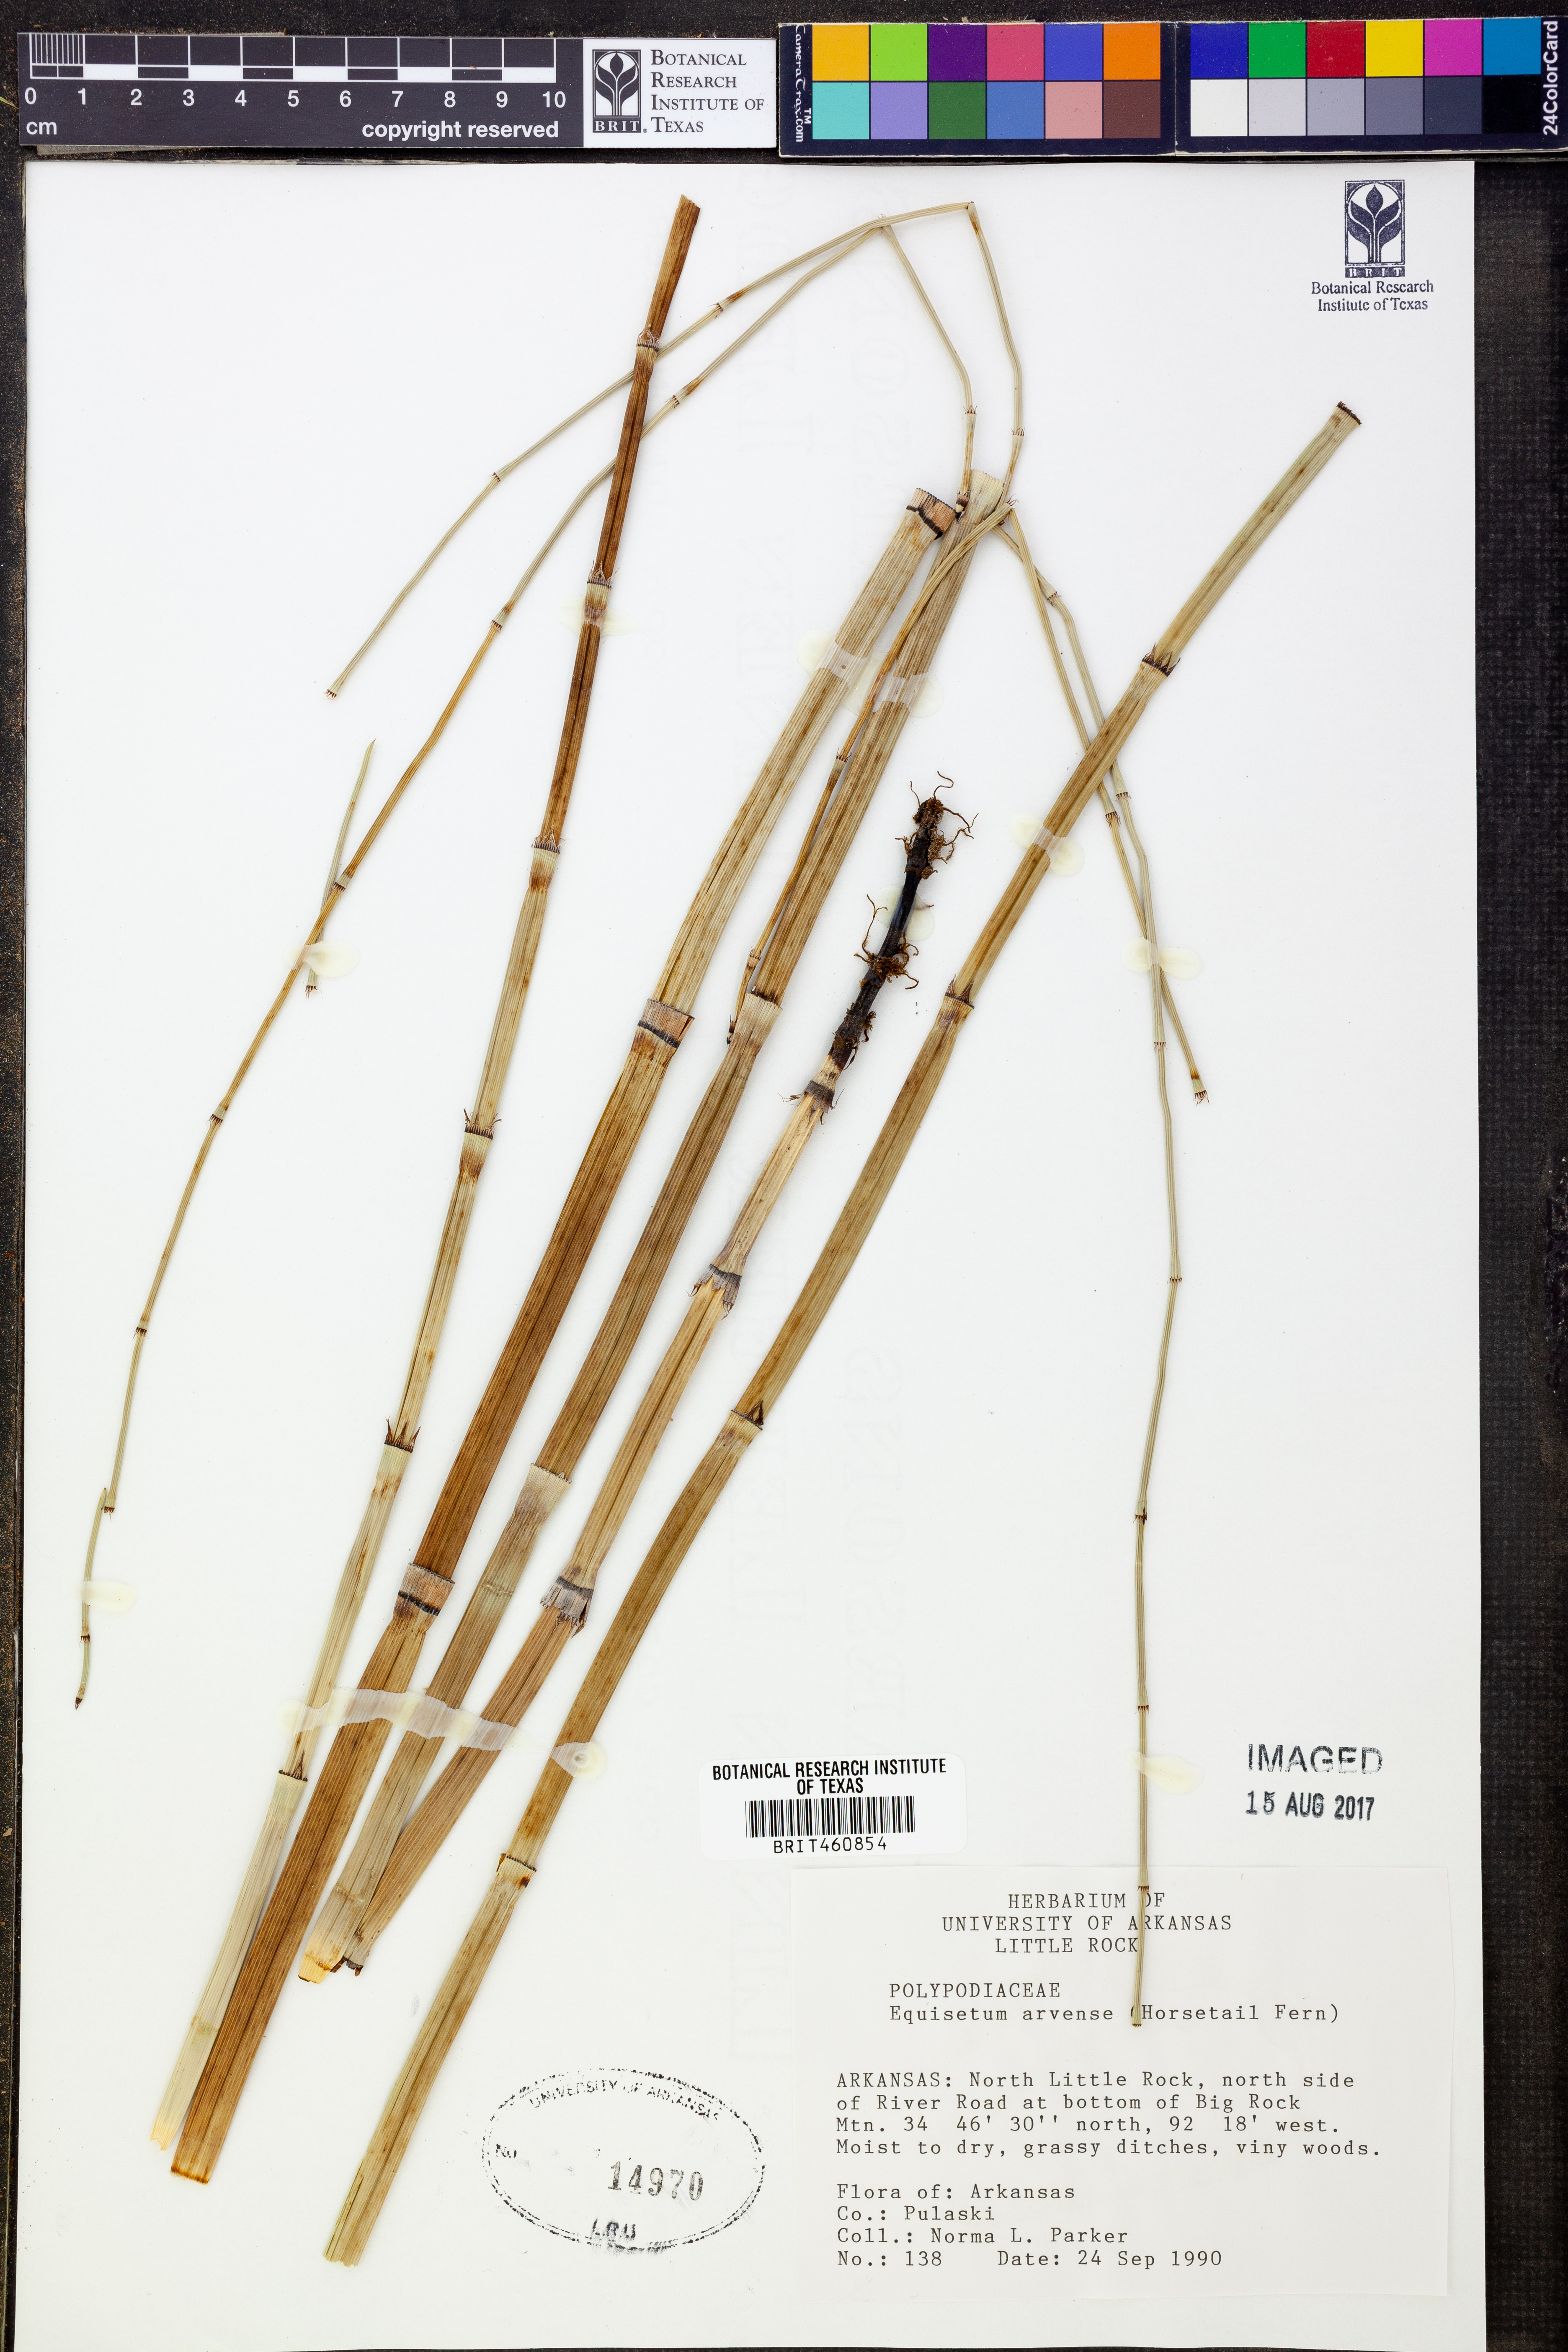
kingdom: Plantae
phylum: Tracheophyta
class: Polypodiopsida
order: Equisetales
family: Equisetaceae
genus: Equisetum
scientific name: Equisetum arvense
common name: Field horsetail
